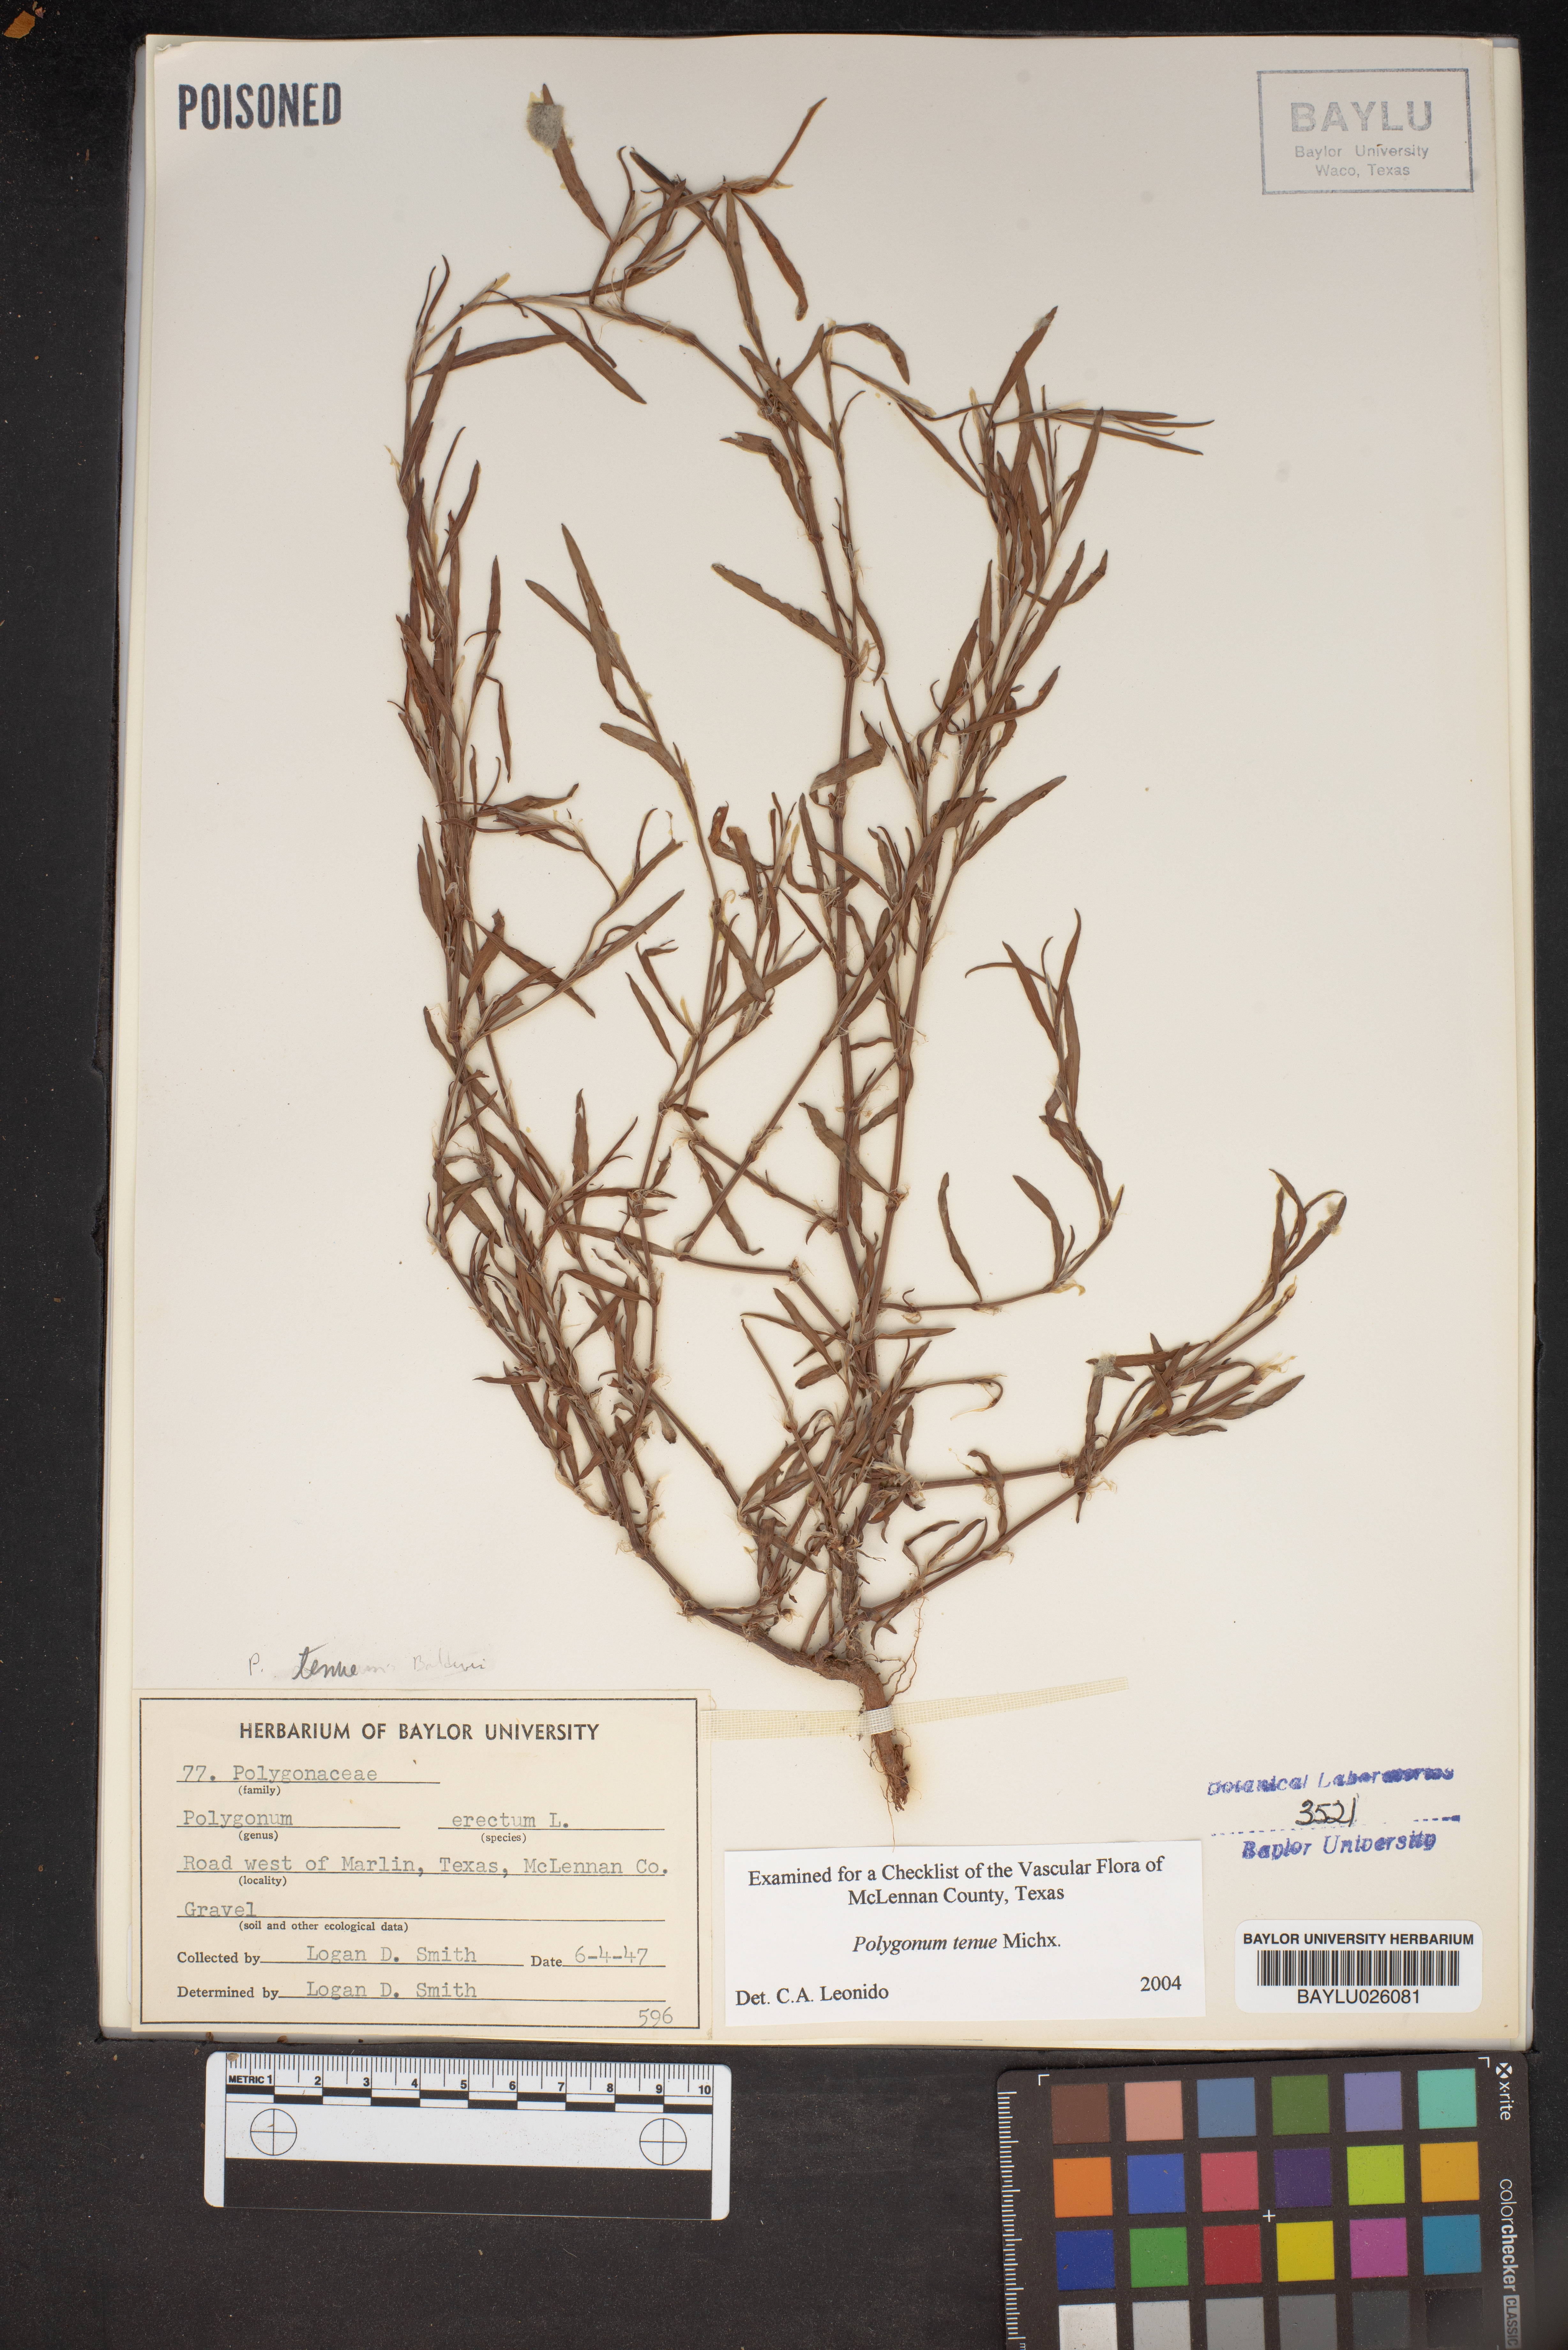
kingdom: Plantae
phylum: Tracheophyta
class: Magnoliopsida
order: Caryophyllales
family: Polygonaceae
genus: Polygonum
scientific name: Polygonum tenue
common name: Pleat-leaved knotweed
